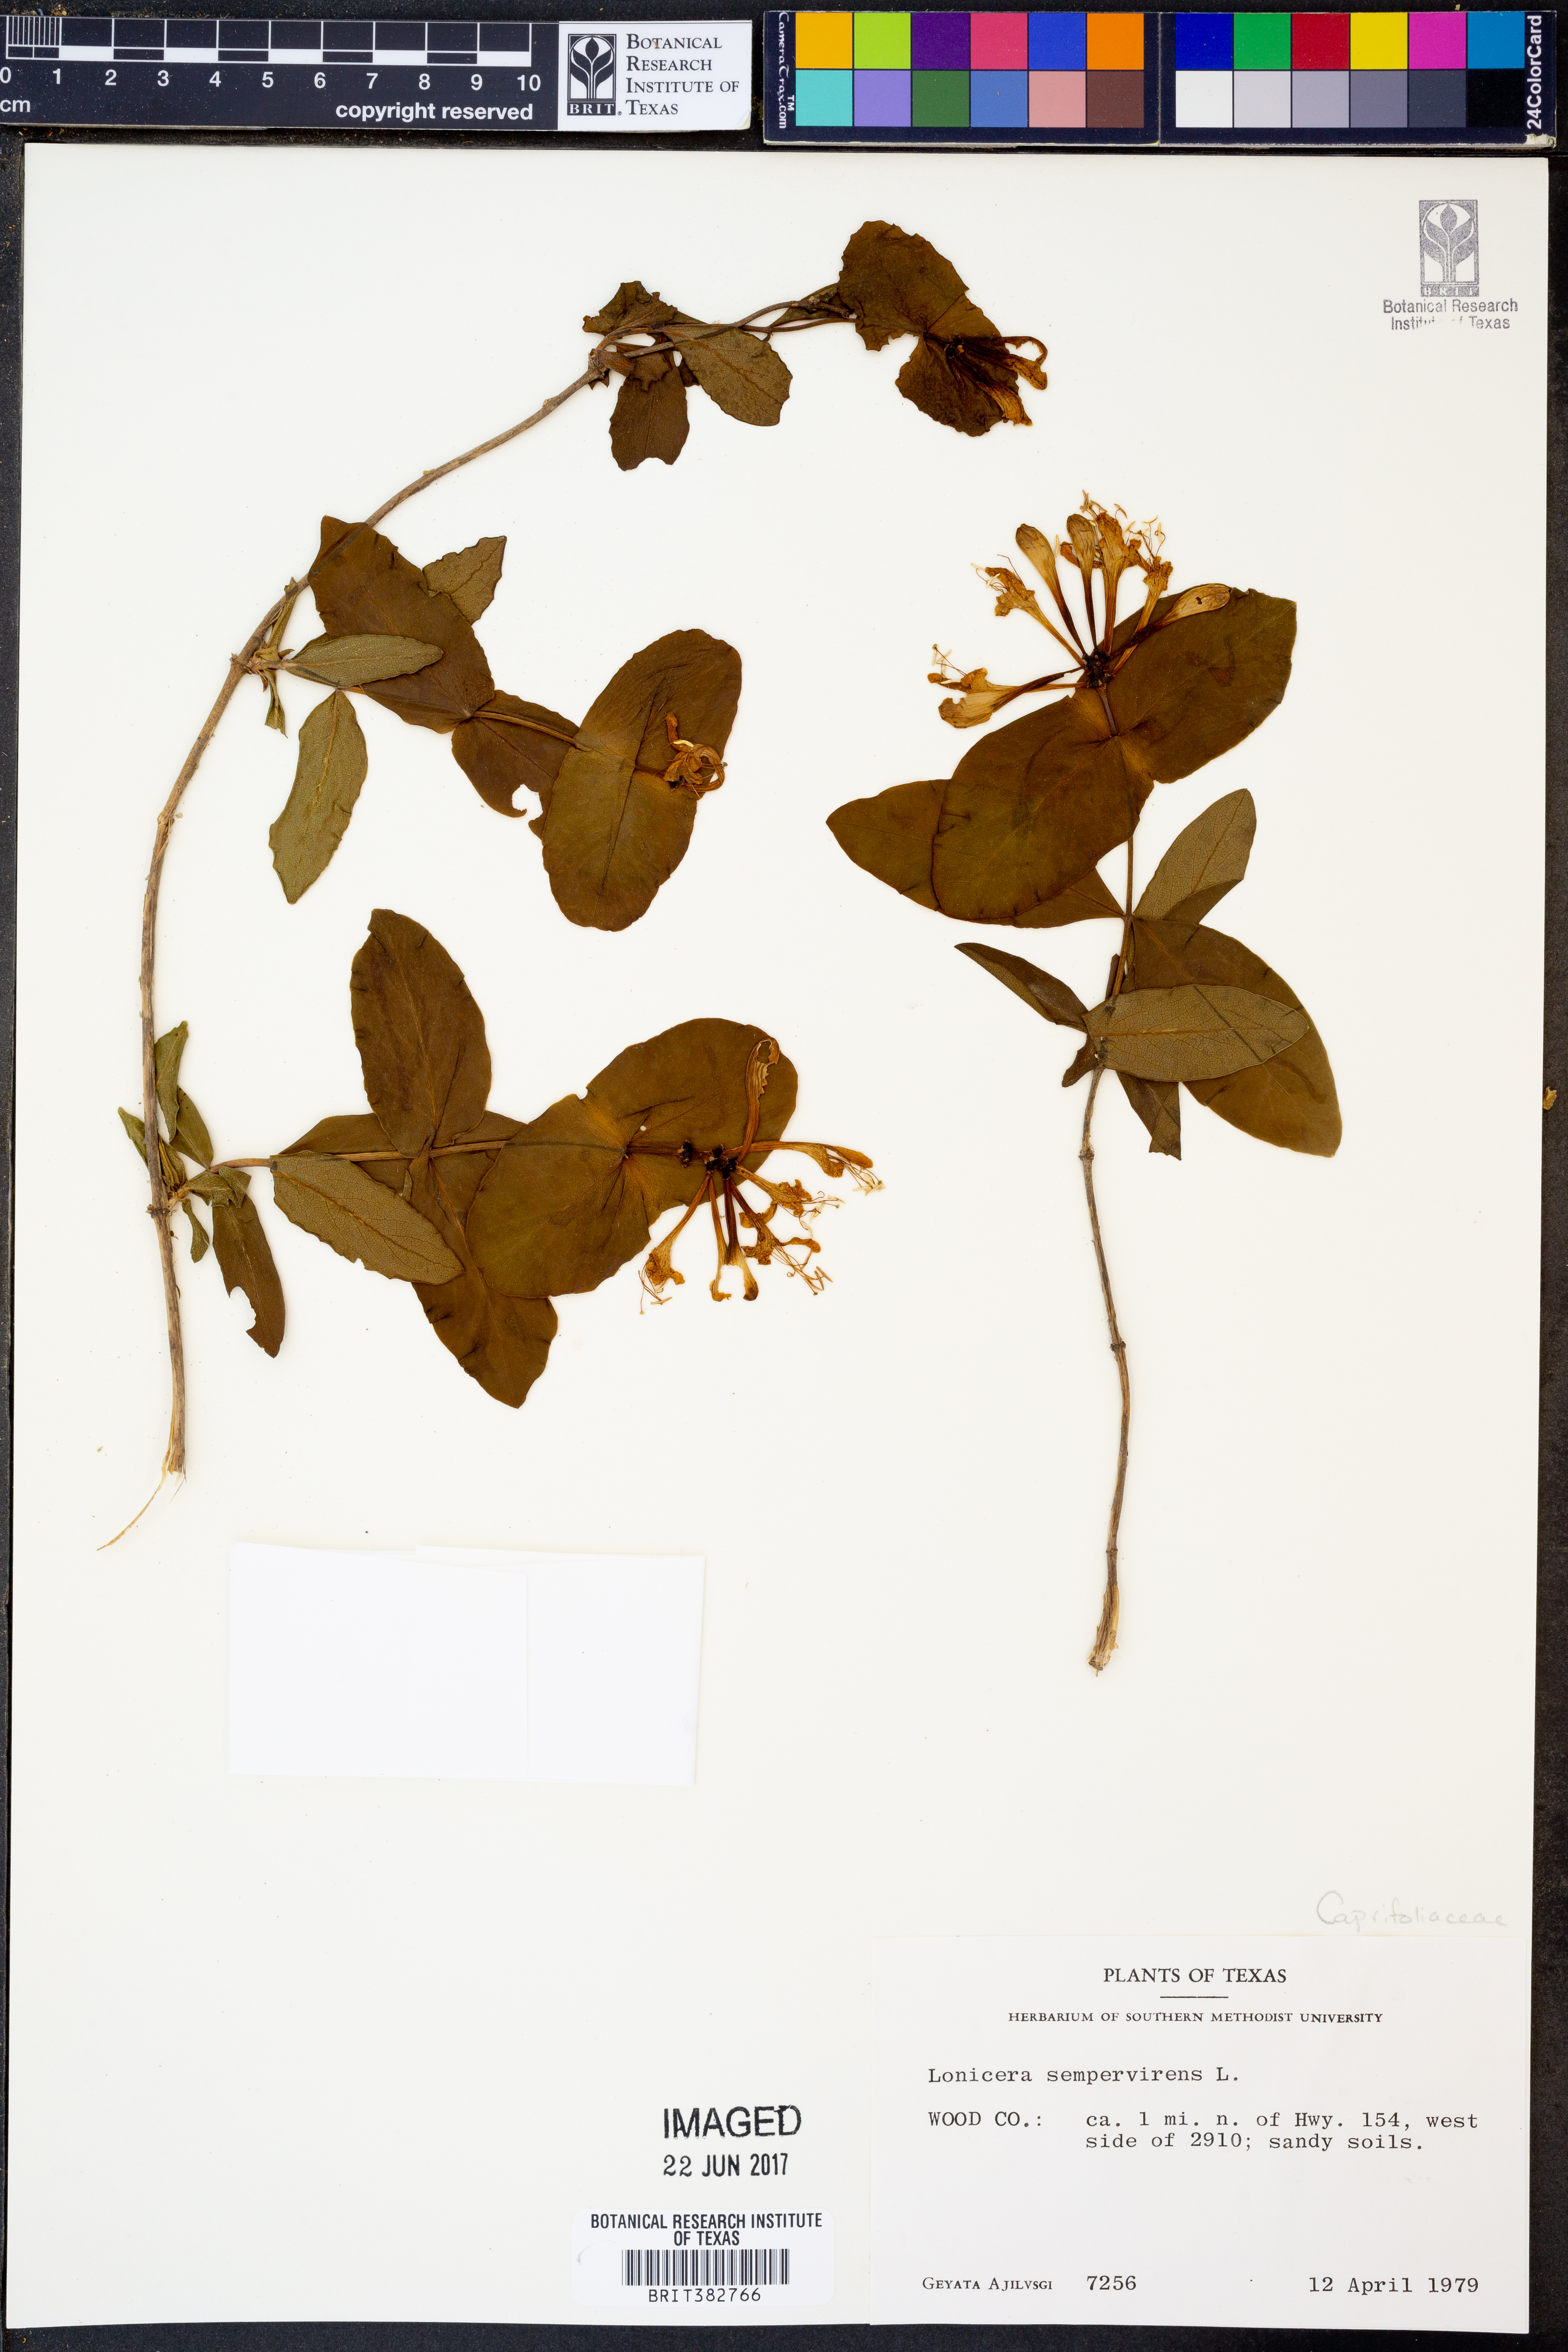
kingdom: Plantae
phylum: Tracheophyta
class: Magnoliopsida
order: Dipsacales
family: Caprifoliaceae
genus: Lonicera
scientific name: Lonicera sempervirens
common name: Coral honeysuckle
